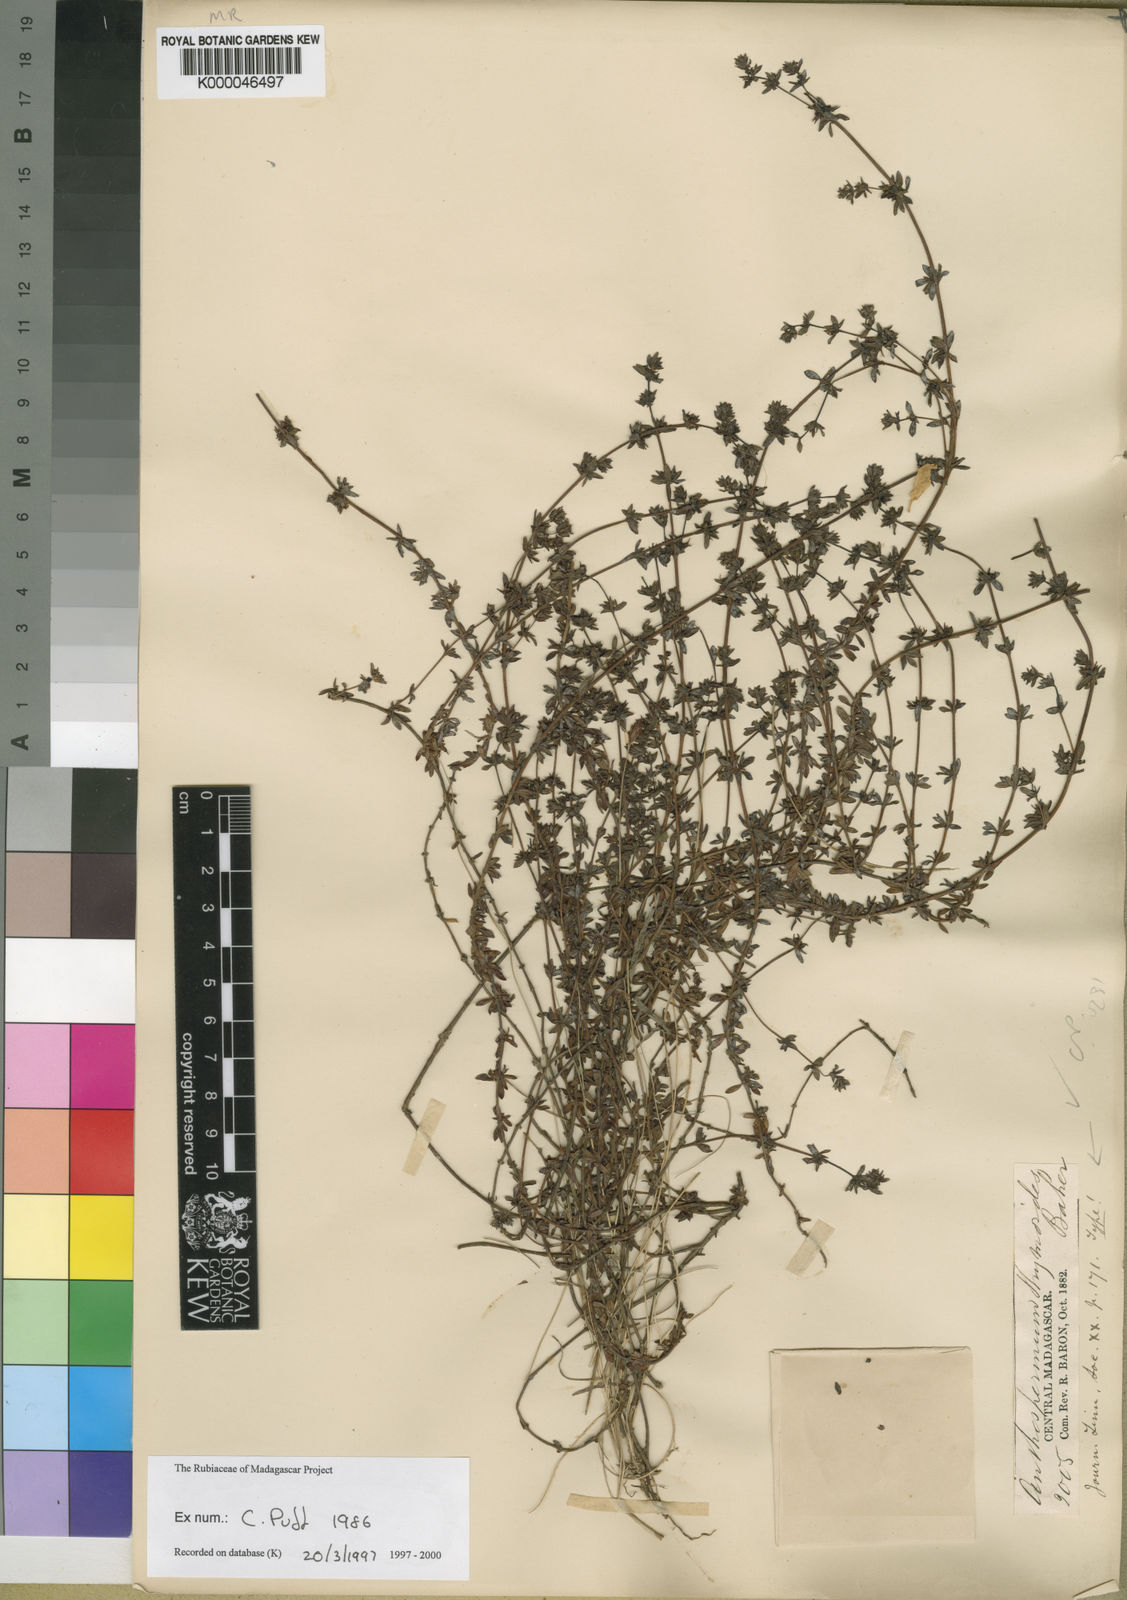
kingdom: Plantae
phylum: Tracheophyta
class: Magnoliopsida
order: Gentianales
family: Rubiaceae
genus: Anthospermum
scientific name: Anthospermum thymoides
